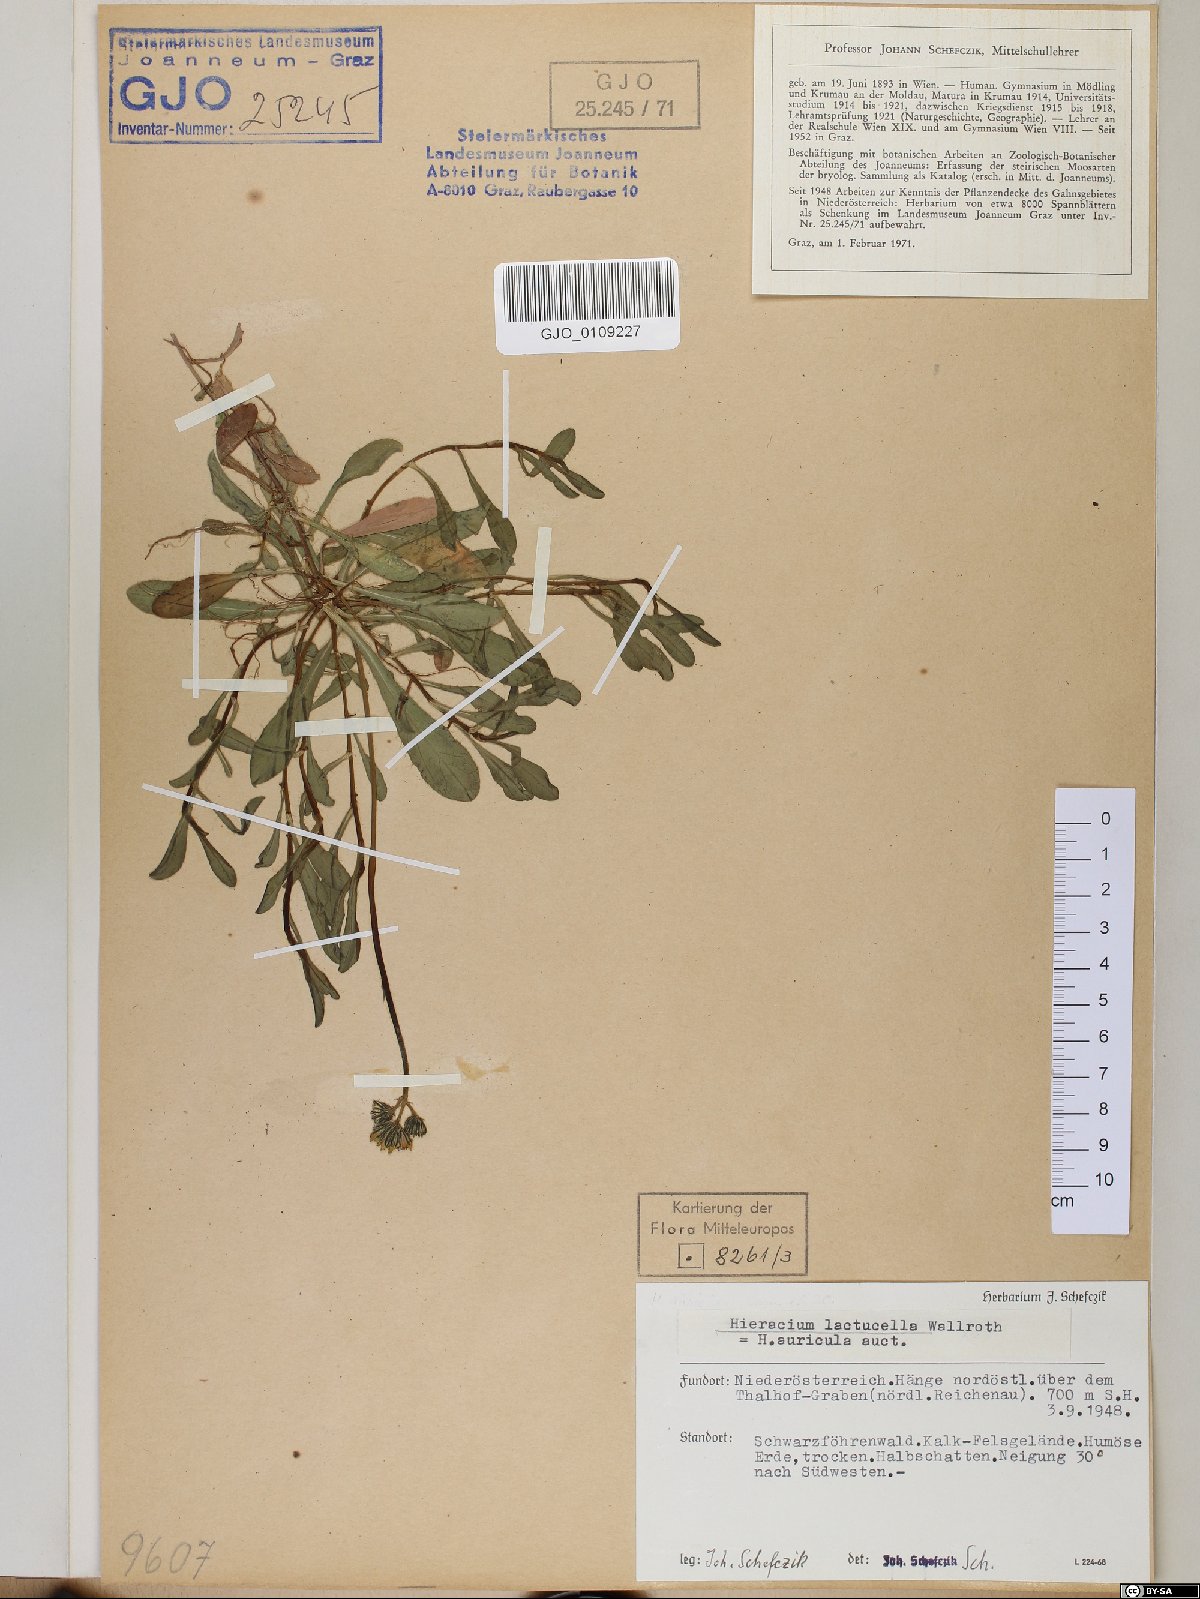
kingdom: Plantae
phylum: Tracheophyta
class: Magnoliopsida
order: Asterales
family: Asteraceae
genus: Pilosella
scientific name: Pilosella lactucella
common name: Glaucous fox-and-cubs
